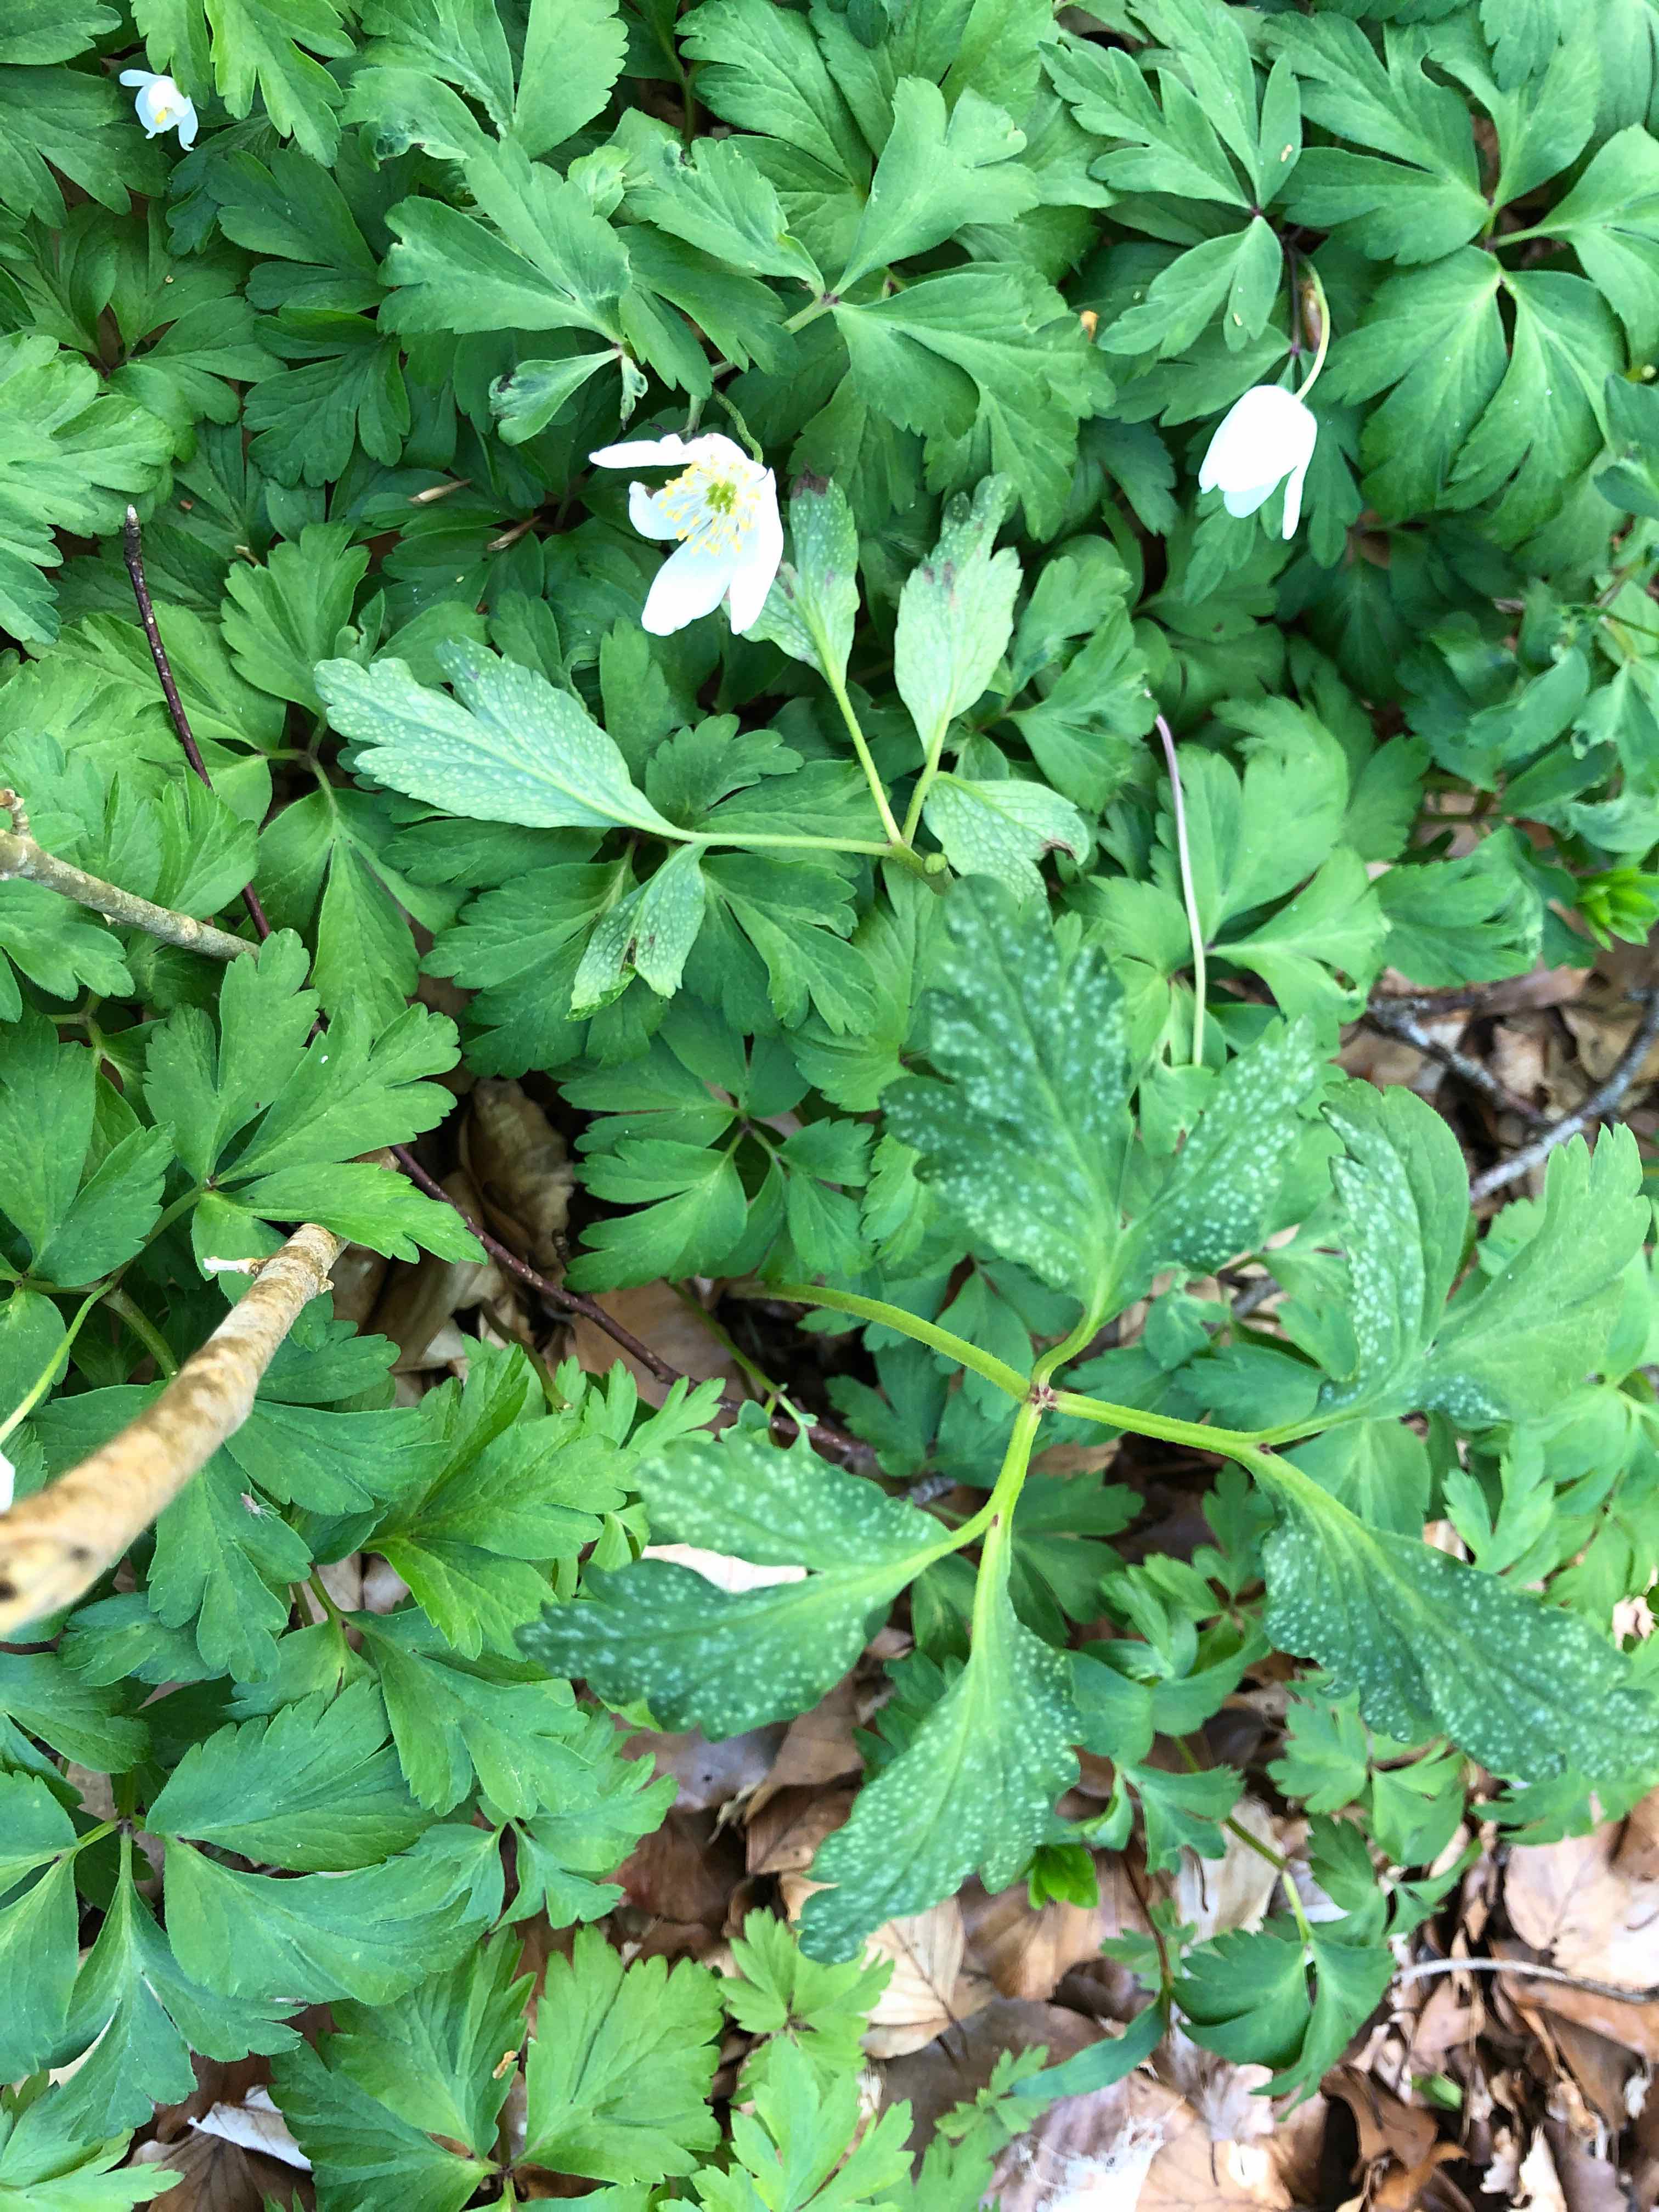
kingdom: Fungi
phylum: Basidiomycota
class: Pucciniomycetes
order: Pucciniales
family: Ochropsoraceae
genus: Ochropsora
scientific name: Ochropsora ariae
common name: anemone-okkerpletrust
